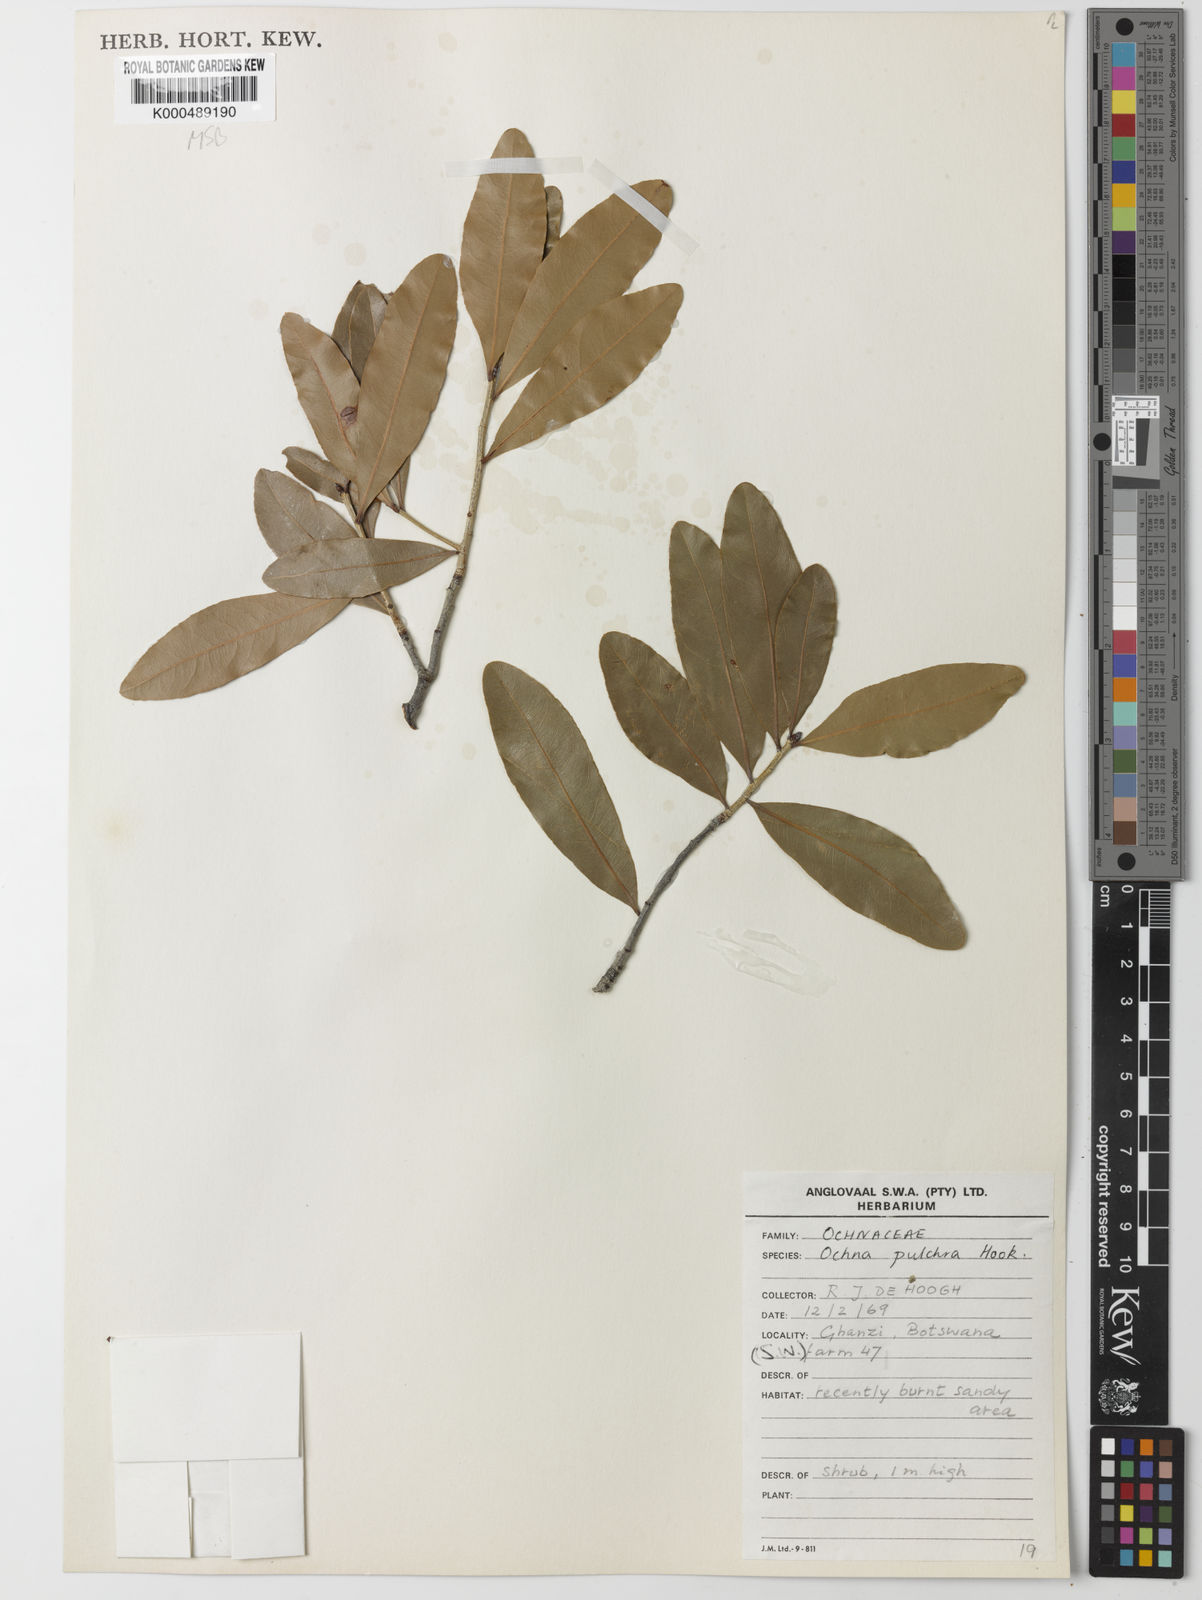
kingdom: Plantae
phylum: Tracheophyta
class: Magnoliopsida
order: Malpighiales
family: Ochnaceae
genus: Ochna
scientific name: Ochna pulchra
